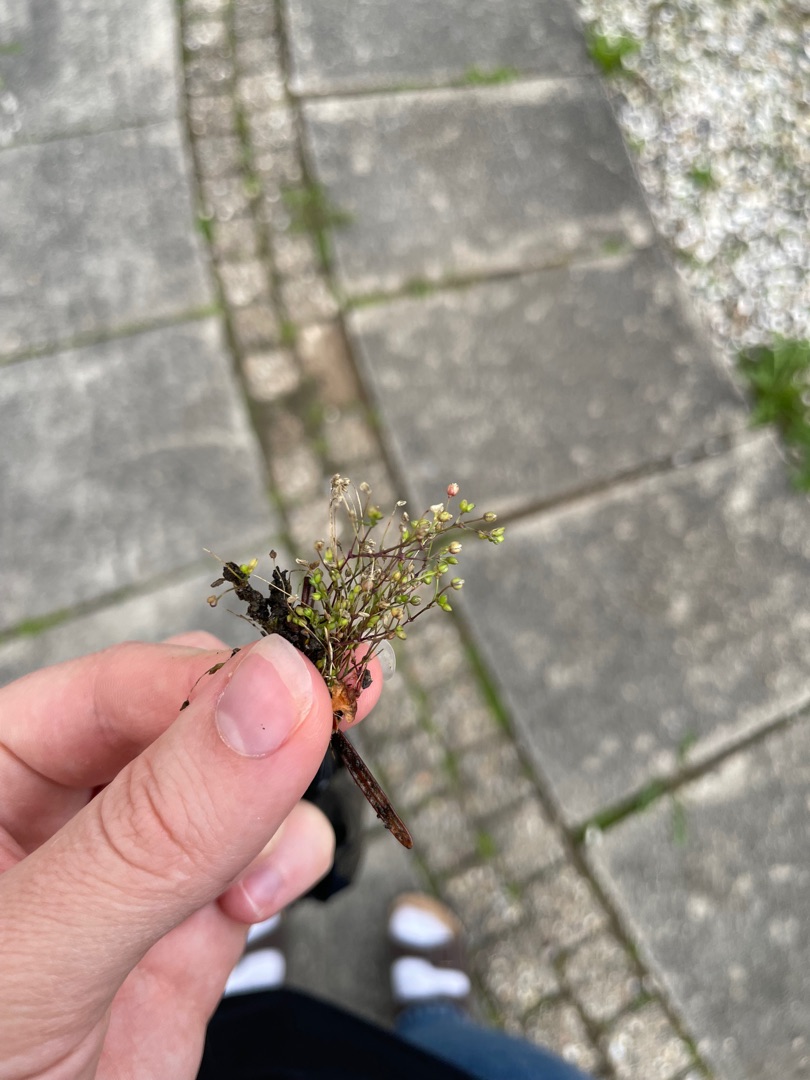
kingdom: Plantae
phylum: Tracheophyta
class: Magnoliopsida
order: Caryophyllales
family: Caryophyllaceae
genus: Sagina
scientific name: Sagina apetala
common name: Kronløs firling
